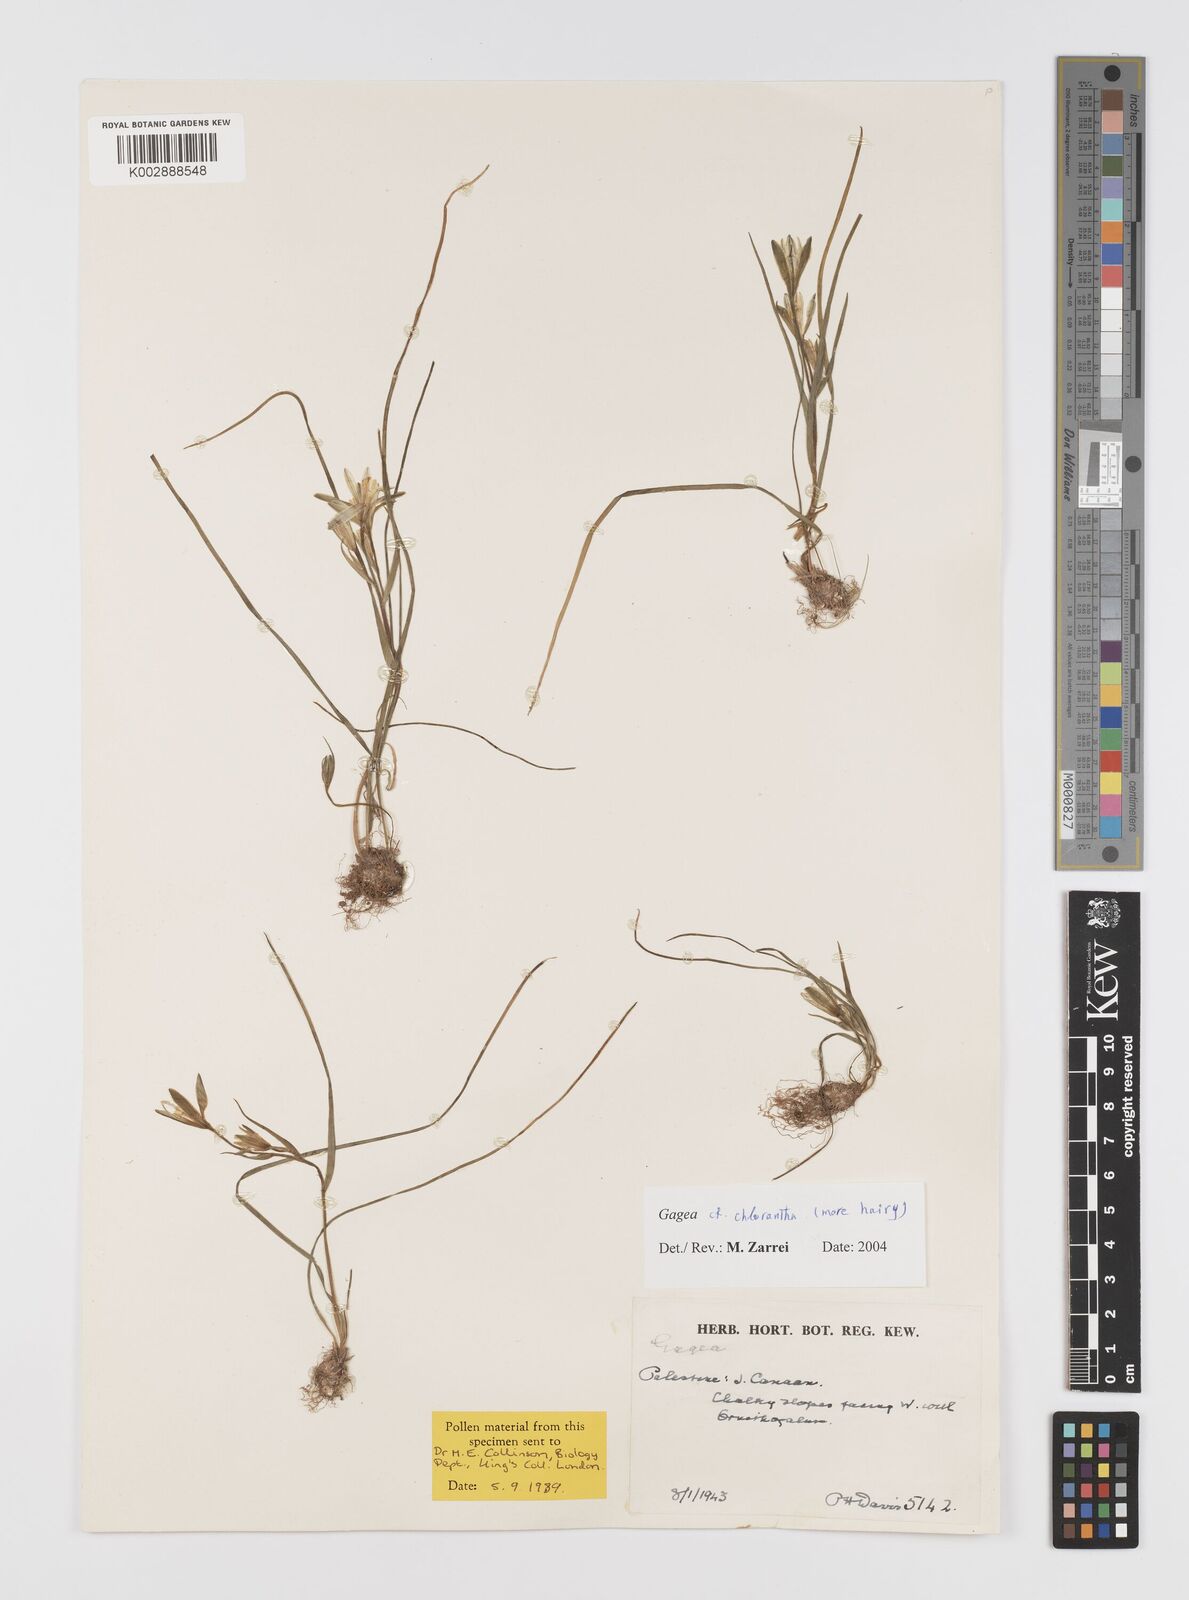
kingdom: Plantae
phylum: Tracheophyta
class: Liliopsida
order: Liliales
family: Liliaceae
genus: Gagea
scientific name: Gagea chlorantha
